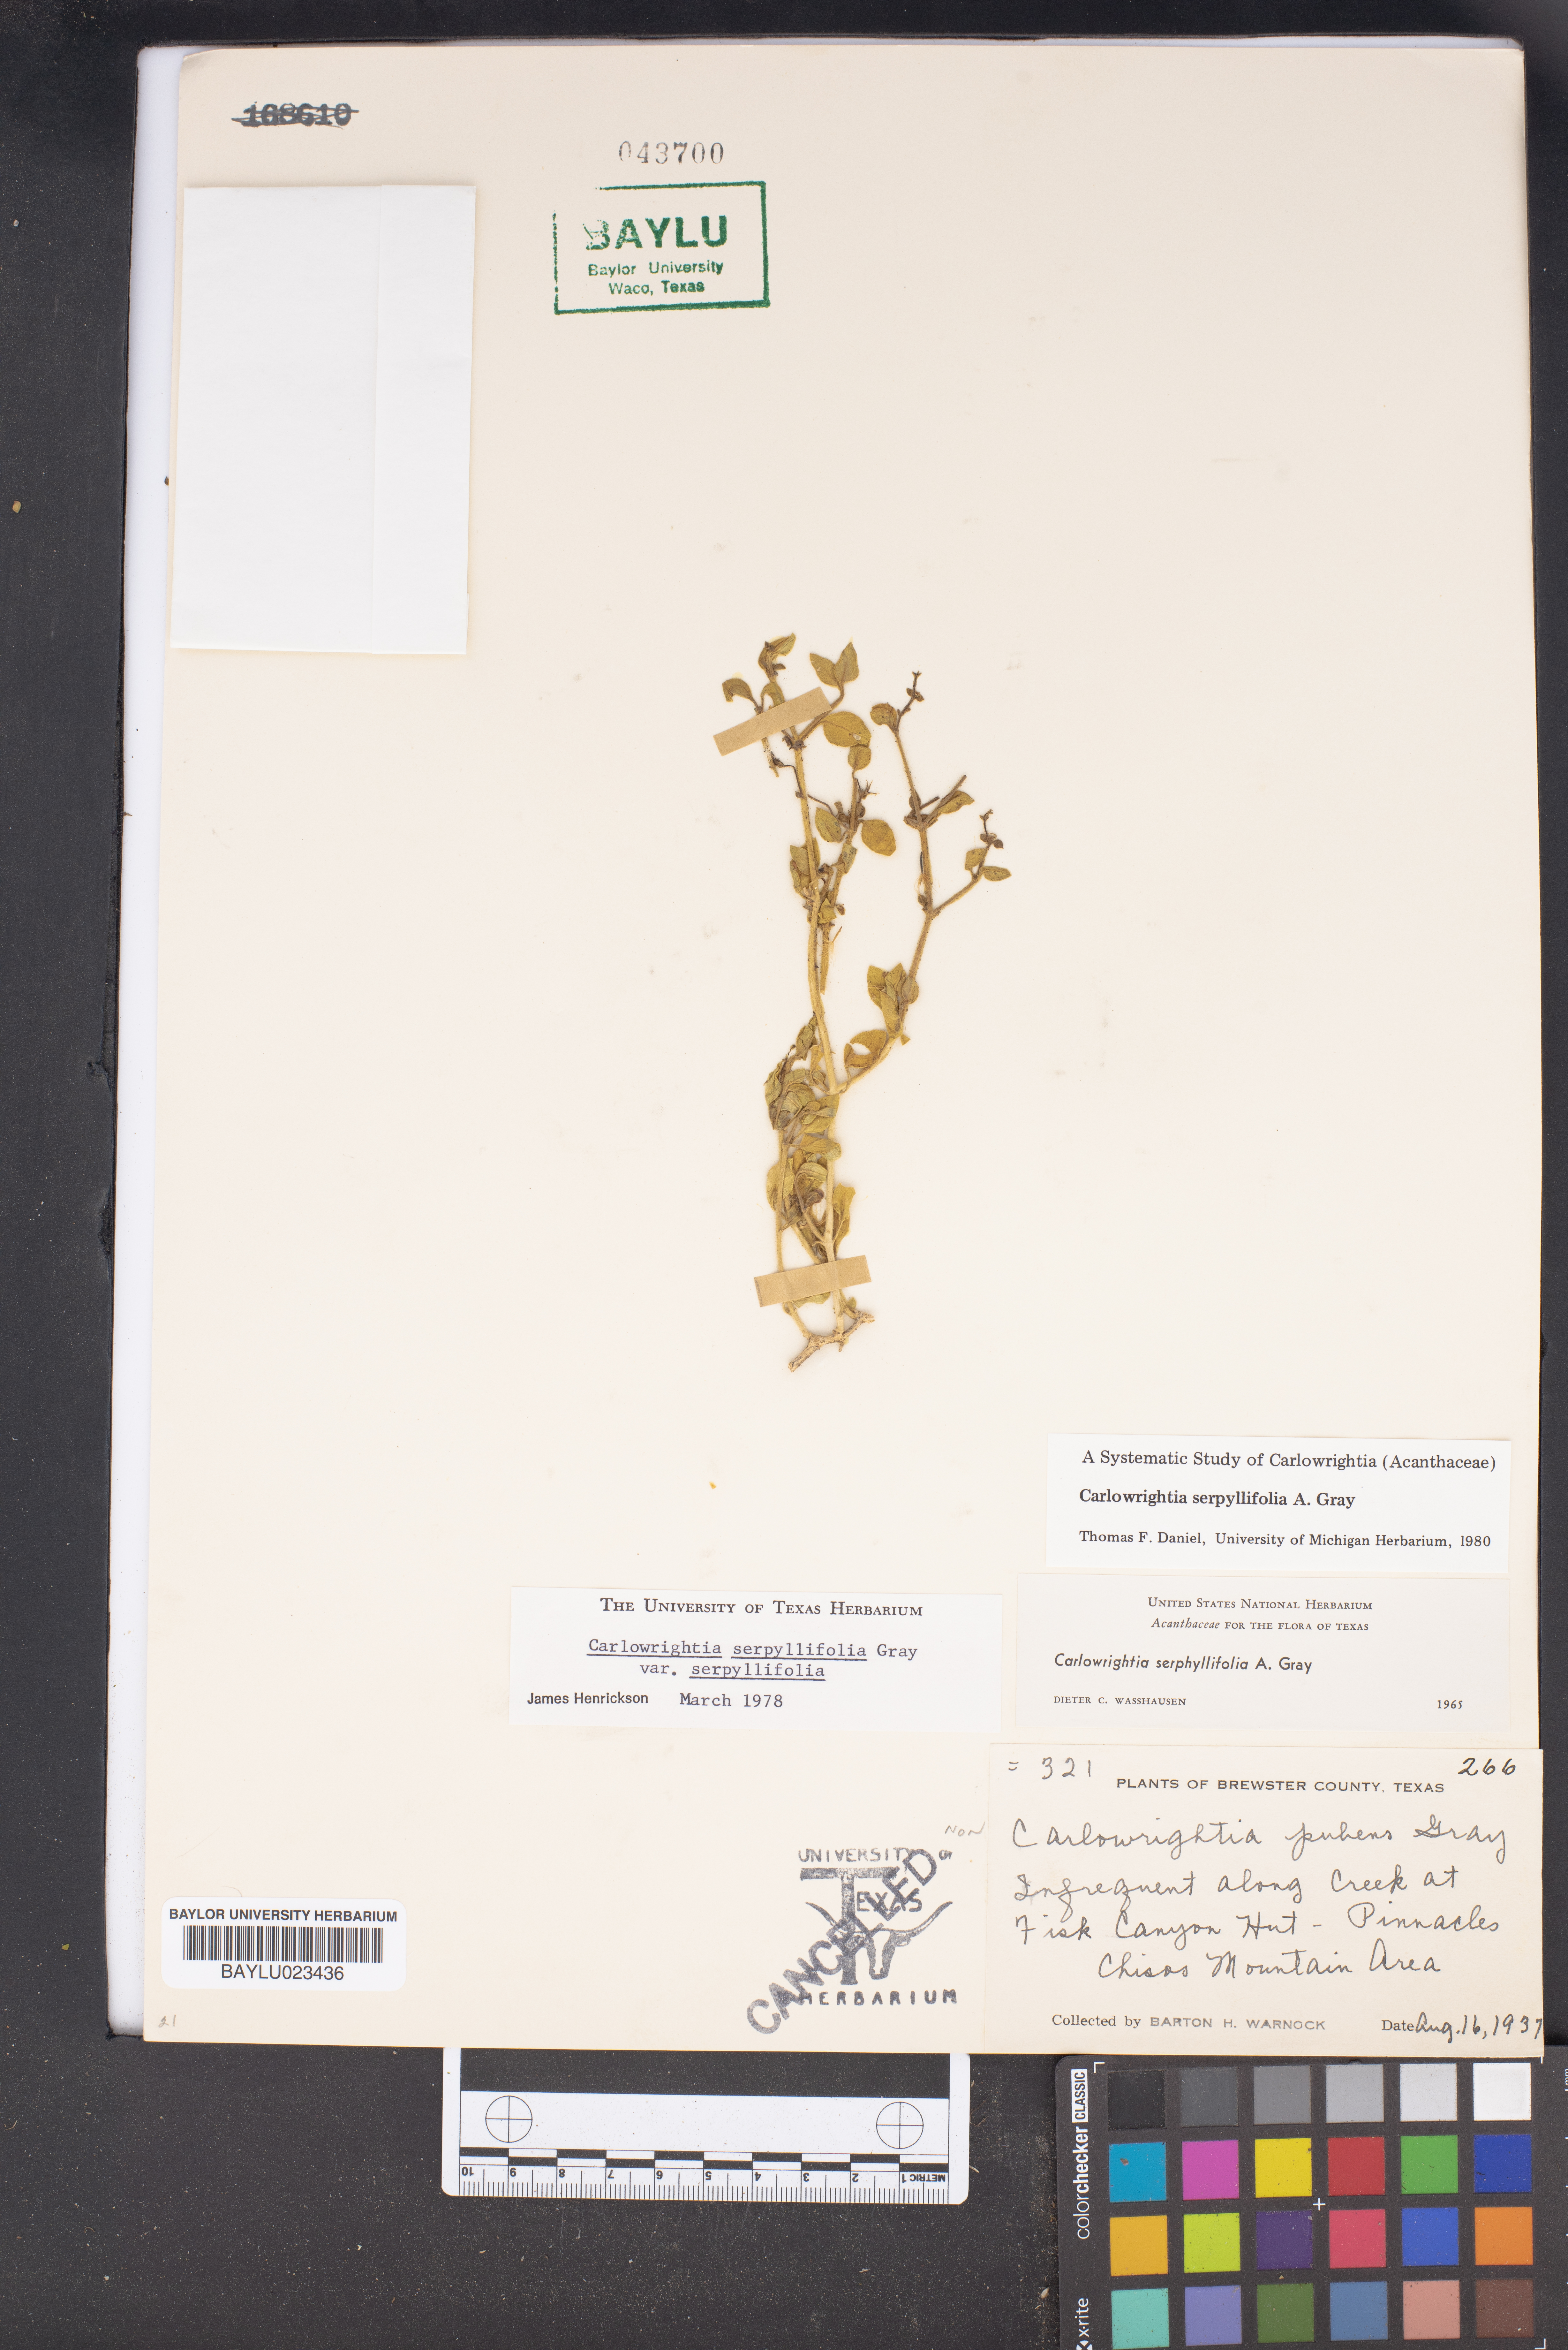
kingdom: Plantae
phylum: Tracheophyta
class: Magnoliopsida
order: Lamiales
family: Acanthaceae
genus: Carlowrightia
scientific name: Carlowrightia serpyllifolia
